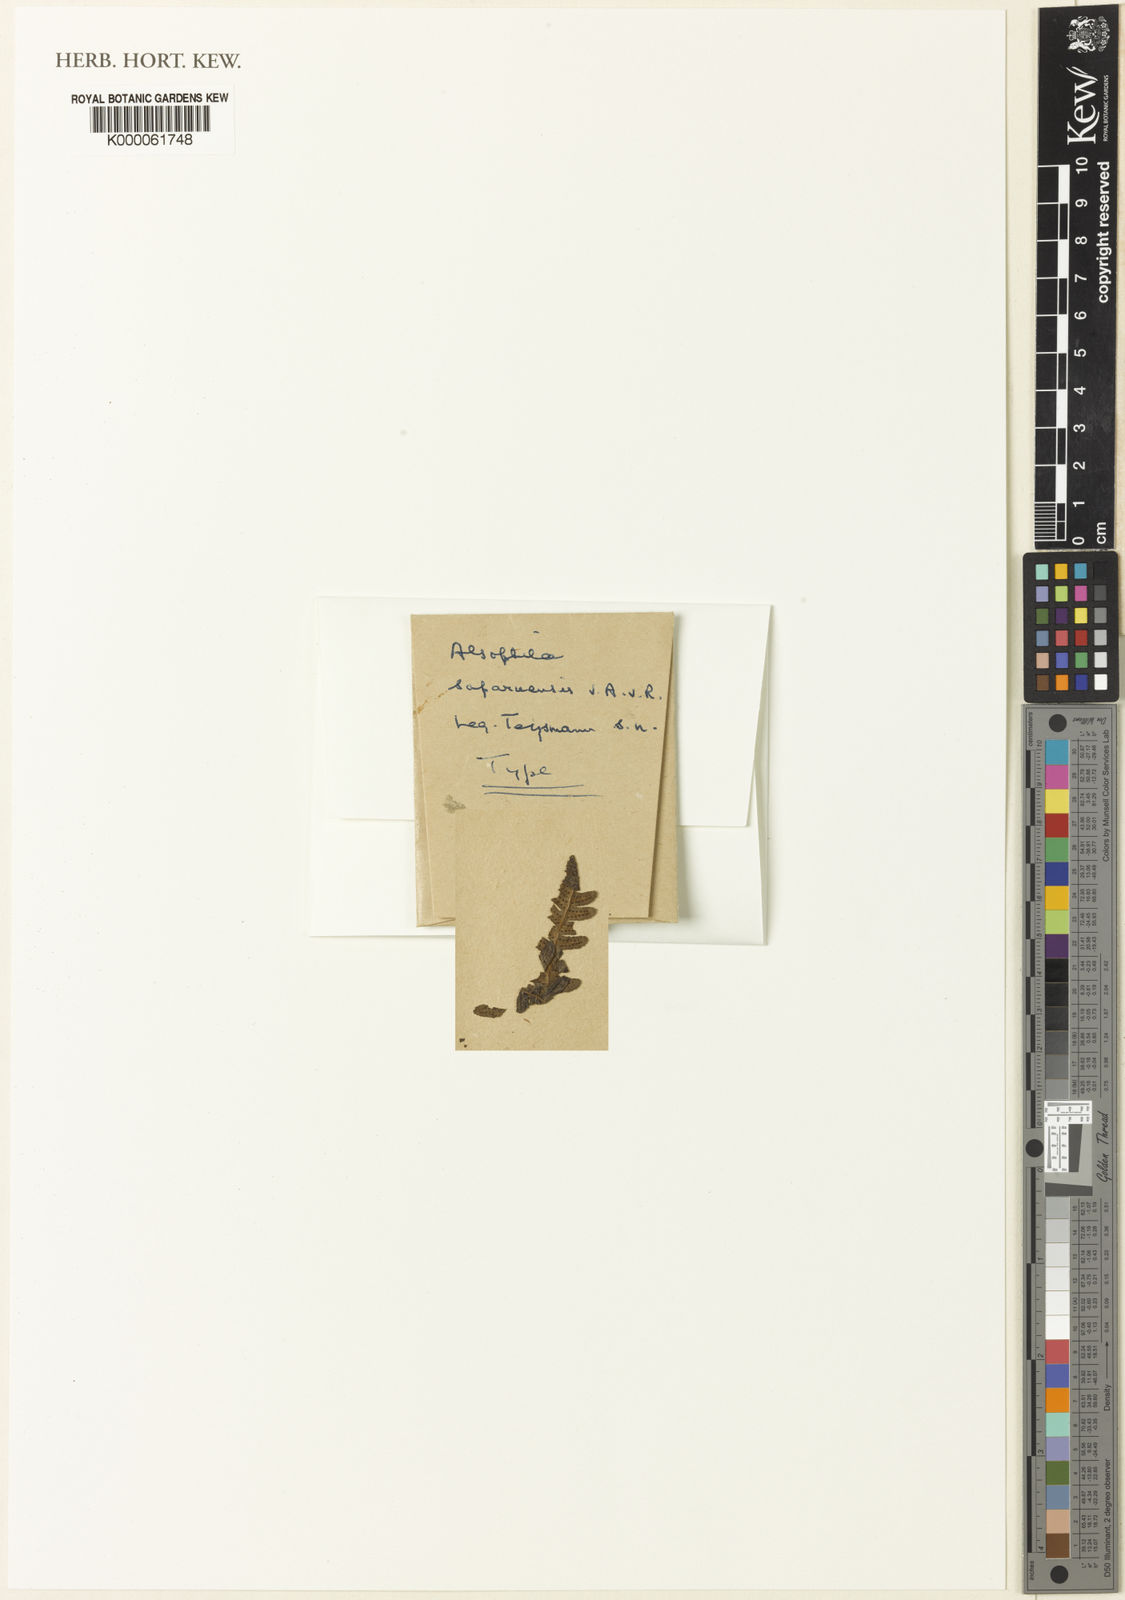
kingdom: Plantae
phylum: Tracheophyta
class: Polypodiopsida
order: Cyatheales
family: Cyatheaceae
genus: Alsophila
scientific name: Alsophila batjanensis
